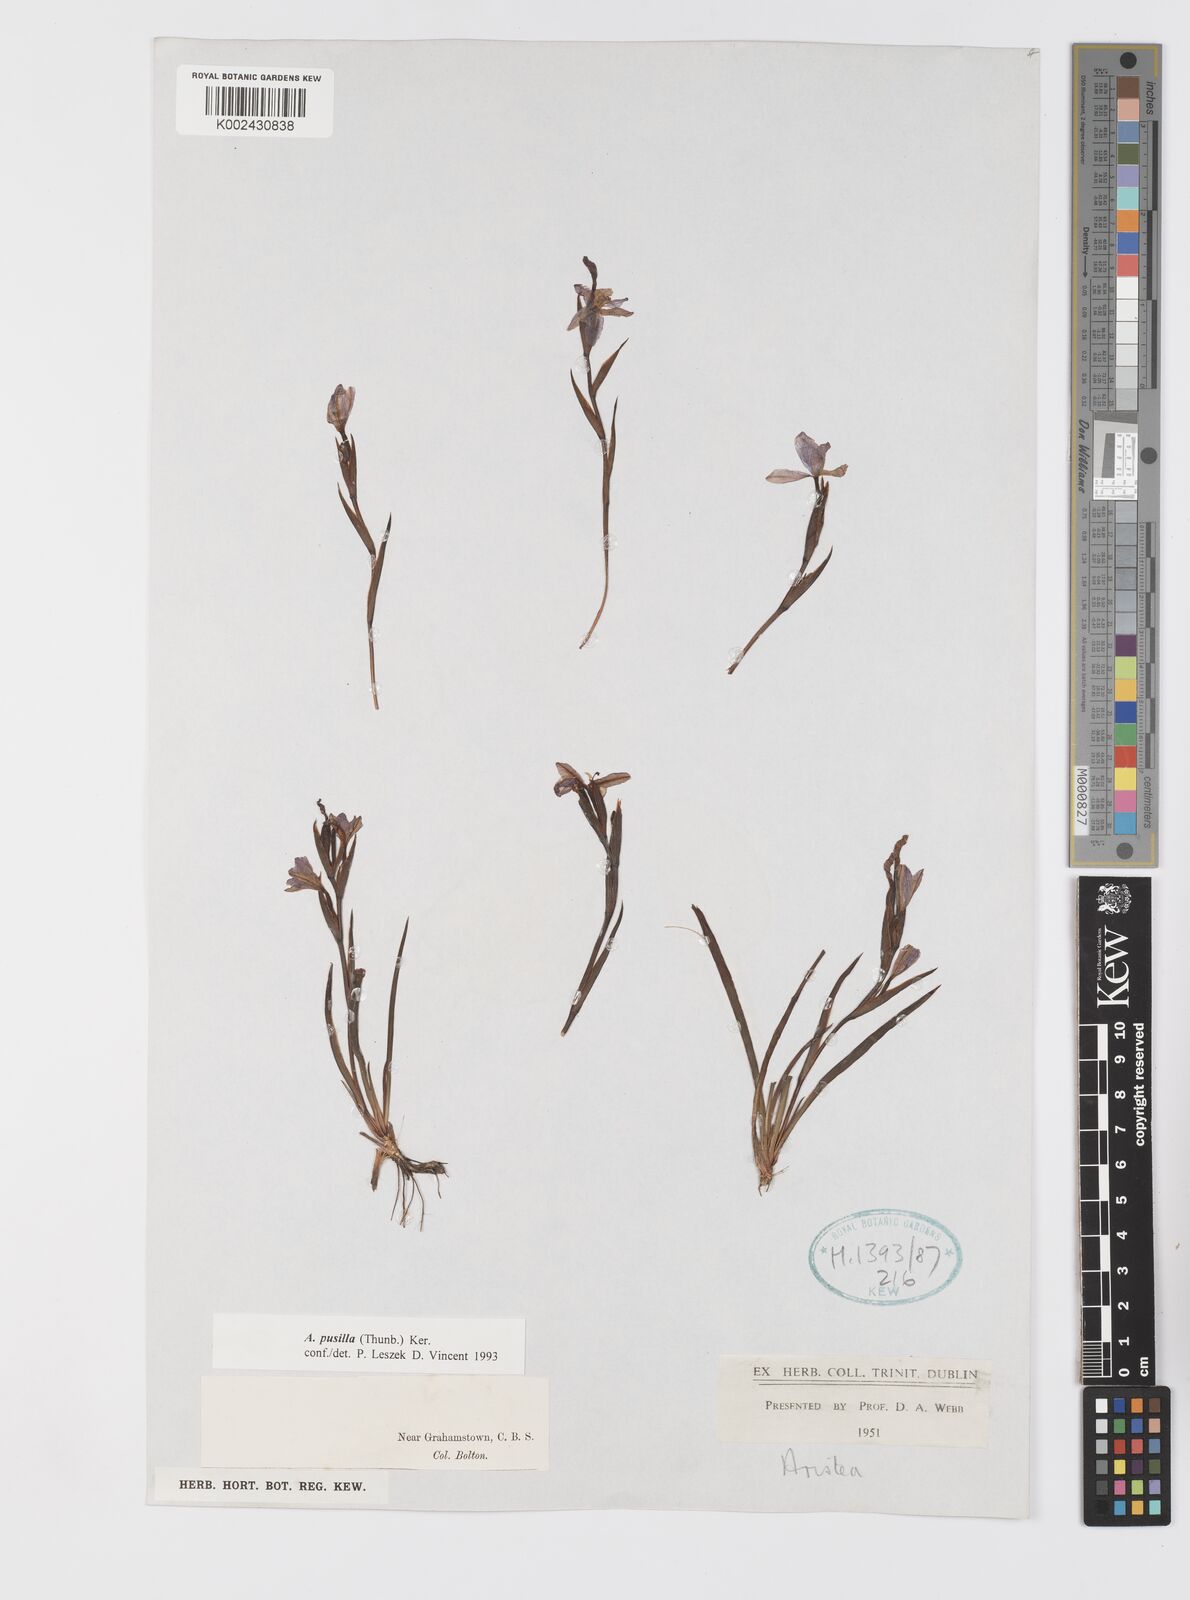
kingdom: Plantae
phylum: Tracheophyta
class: Liliopsida
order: Asparagales
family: Iridaceae
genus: Aristea
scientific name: Aristea pusilla
